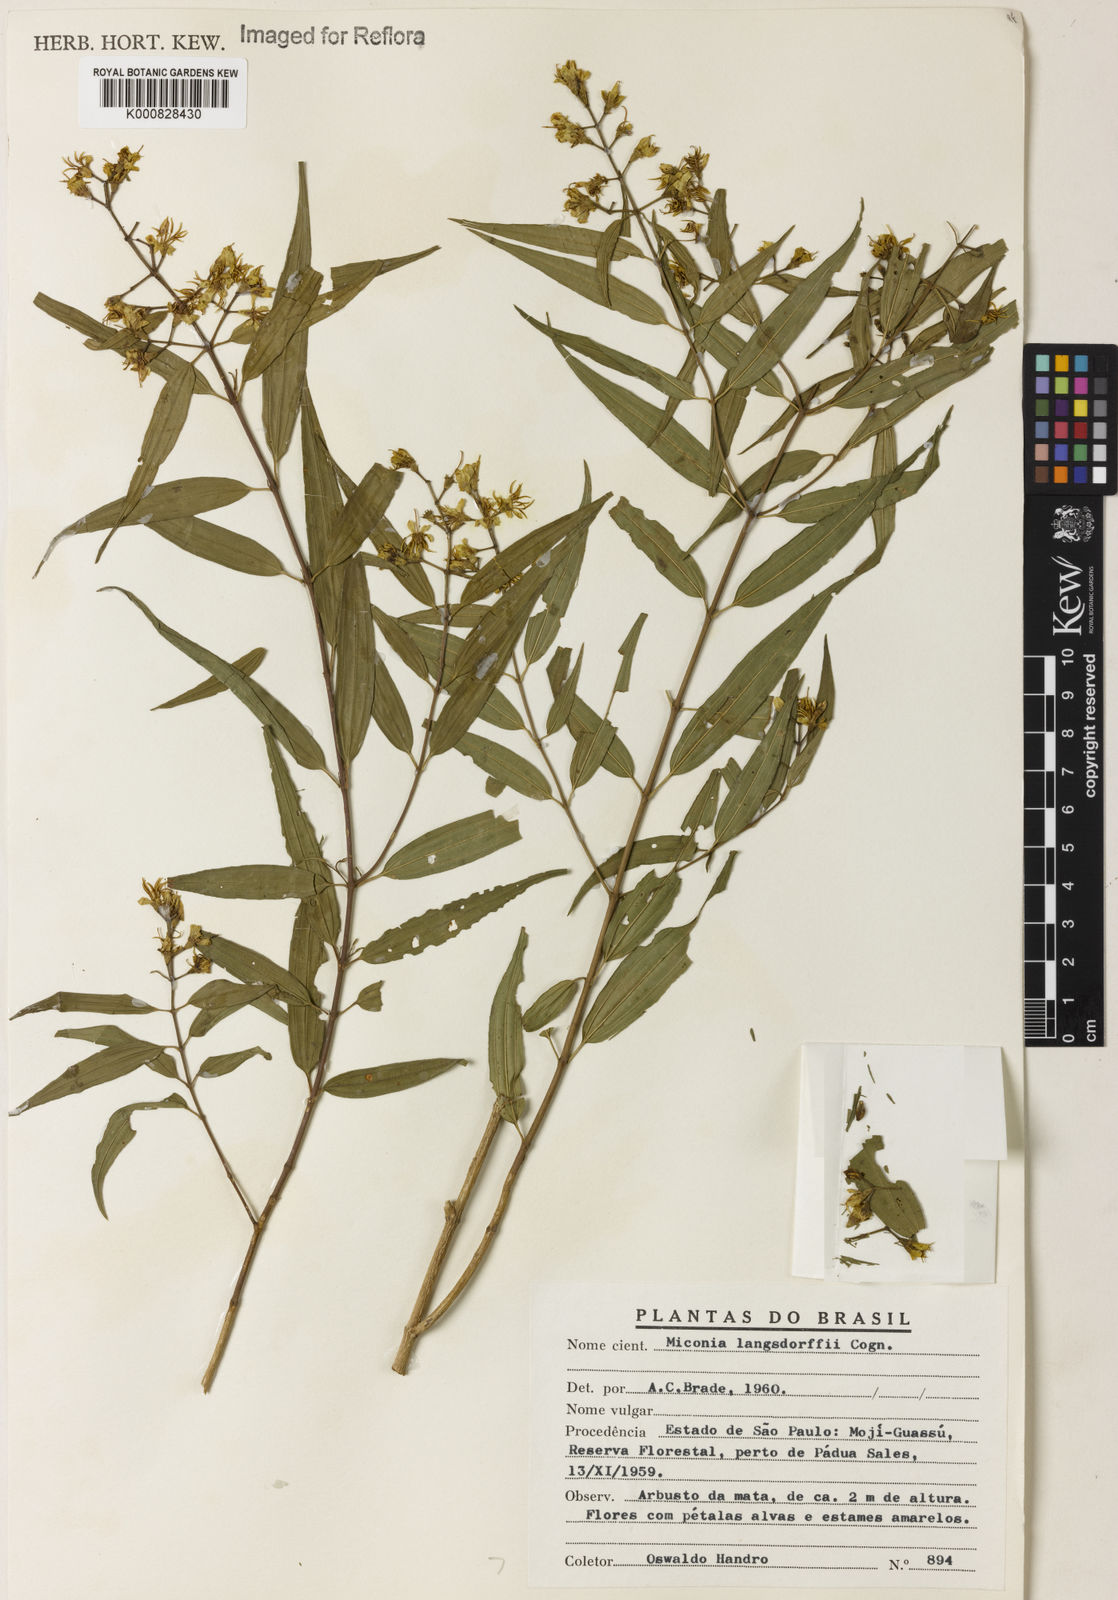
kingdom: Plantae
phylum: Tracheophyta
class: Magnoliopsida
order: Myrtales
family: Melastomataceae
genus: Miconia
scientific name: Miconia langsdorffii
